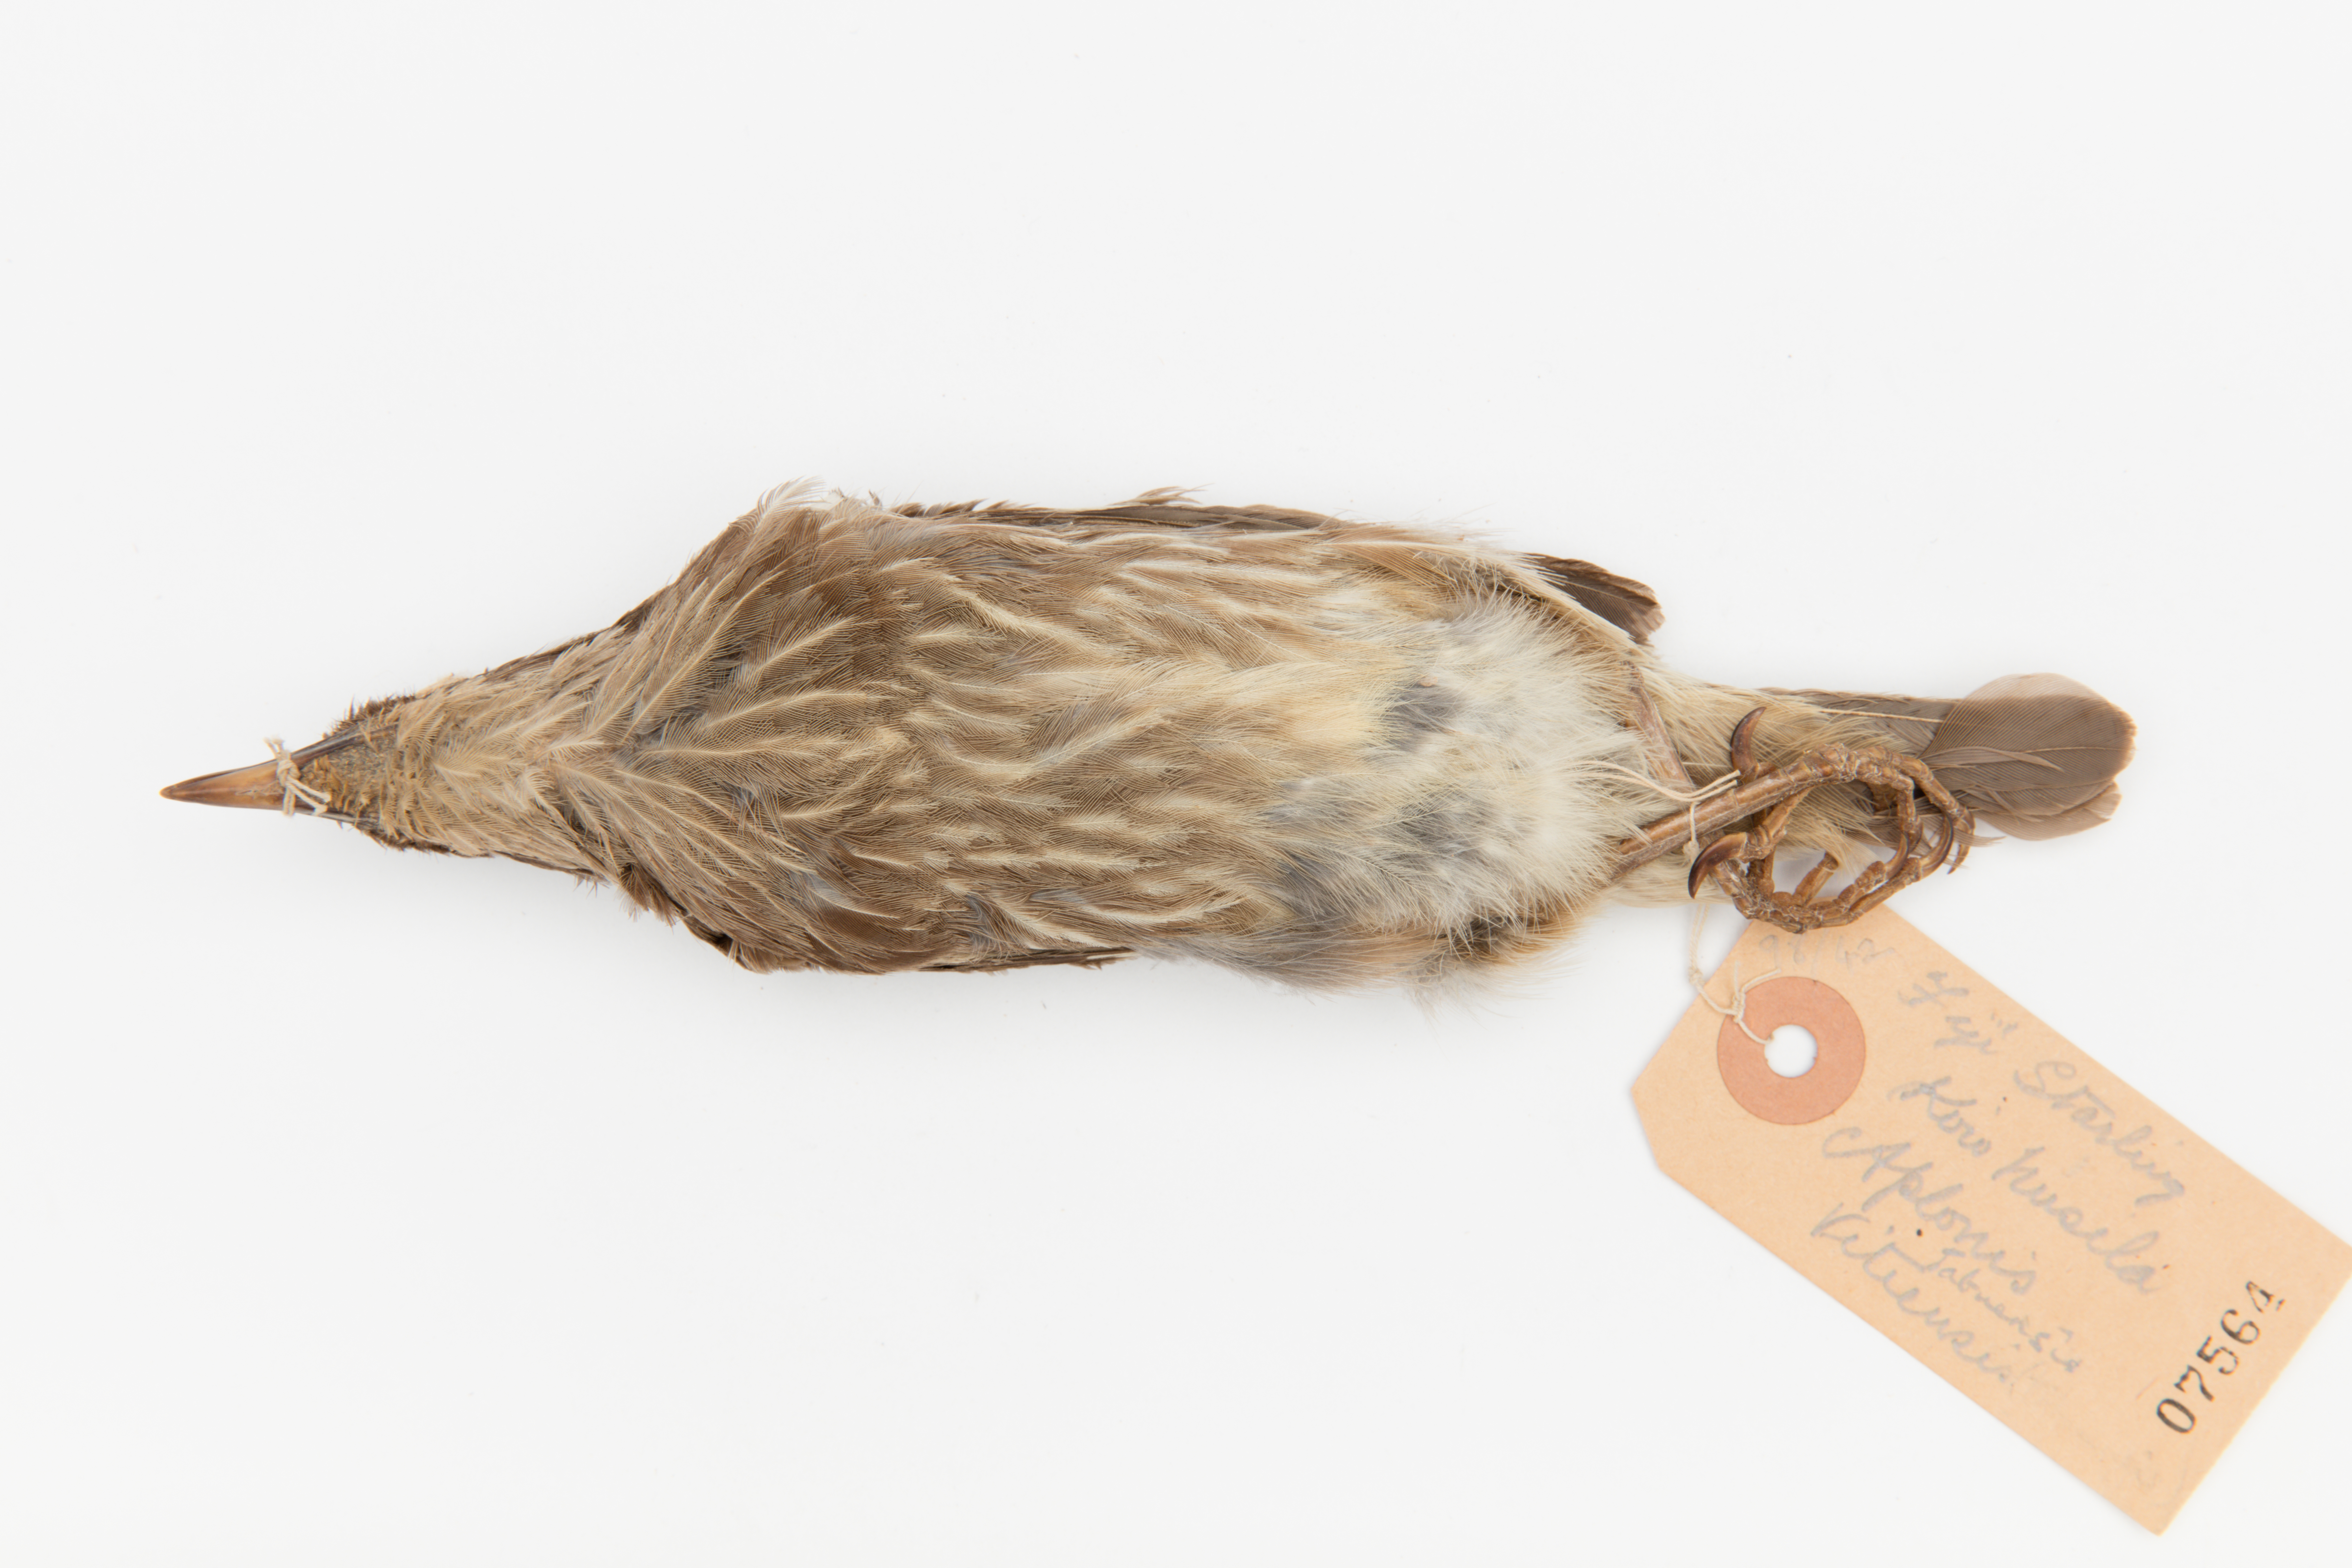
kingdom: Animalia
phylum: Chordata
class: Aves
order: Passeriformes
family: Sturnidae
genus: Aplonis
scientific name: Aplonis tabuensis
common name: Polynesian starling
